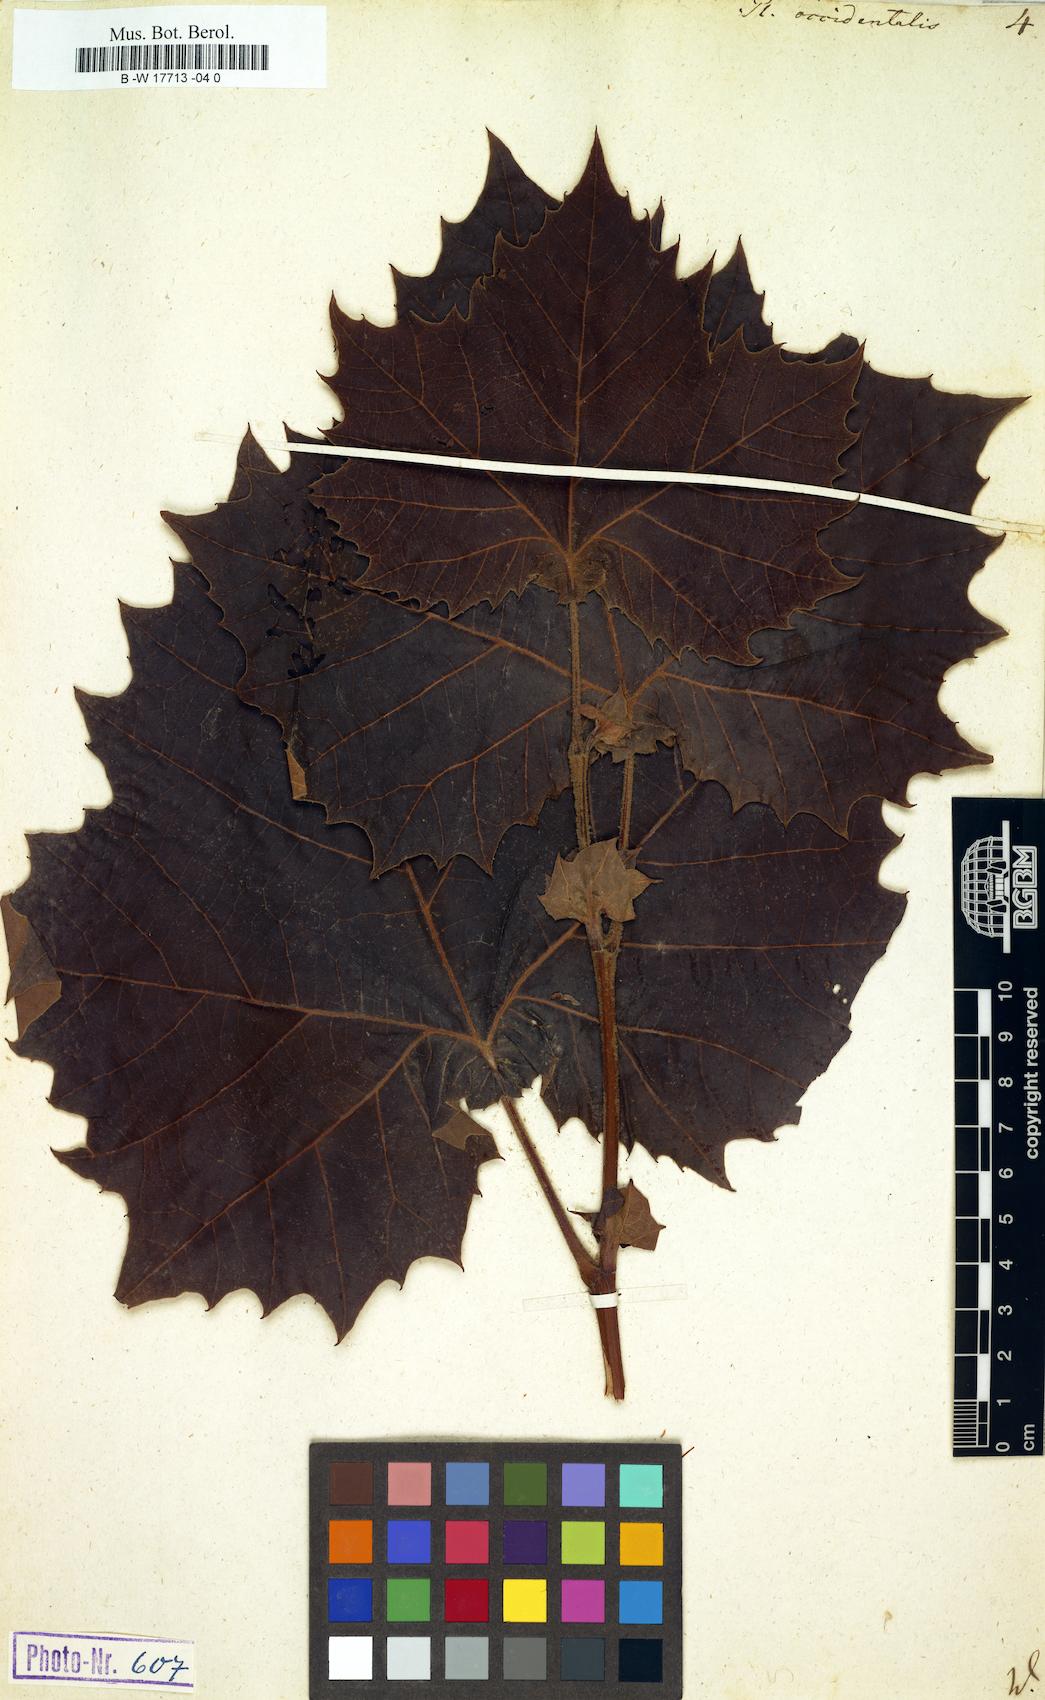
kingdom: Plantae
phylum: Tracheophyta
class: Magnoliopsida
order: Proteales
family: Platanaceae
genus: Platanus
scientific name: Platanus occidentalis
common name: American sycamore
